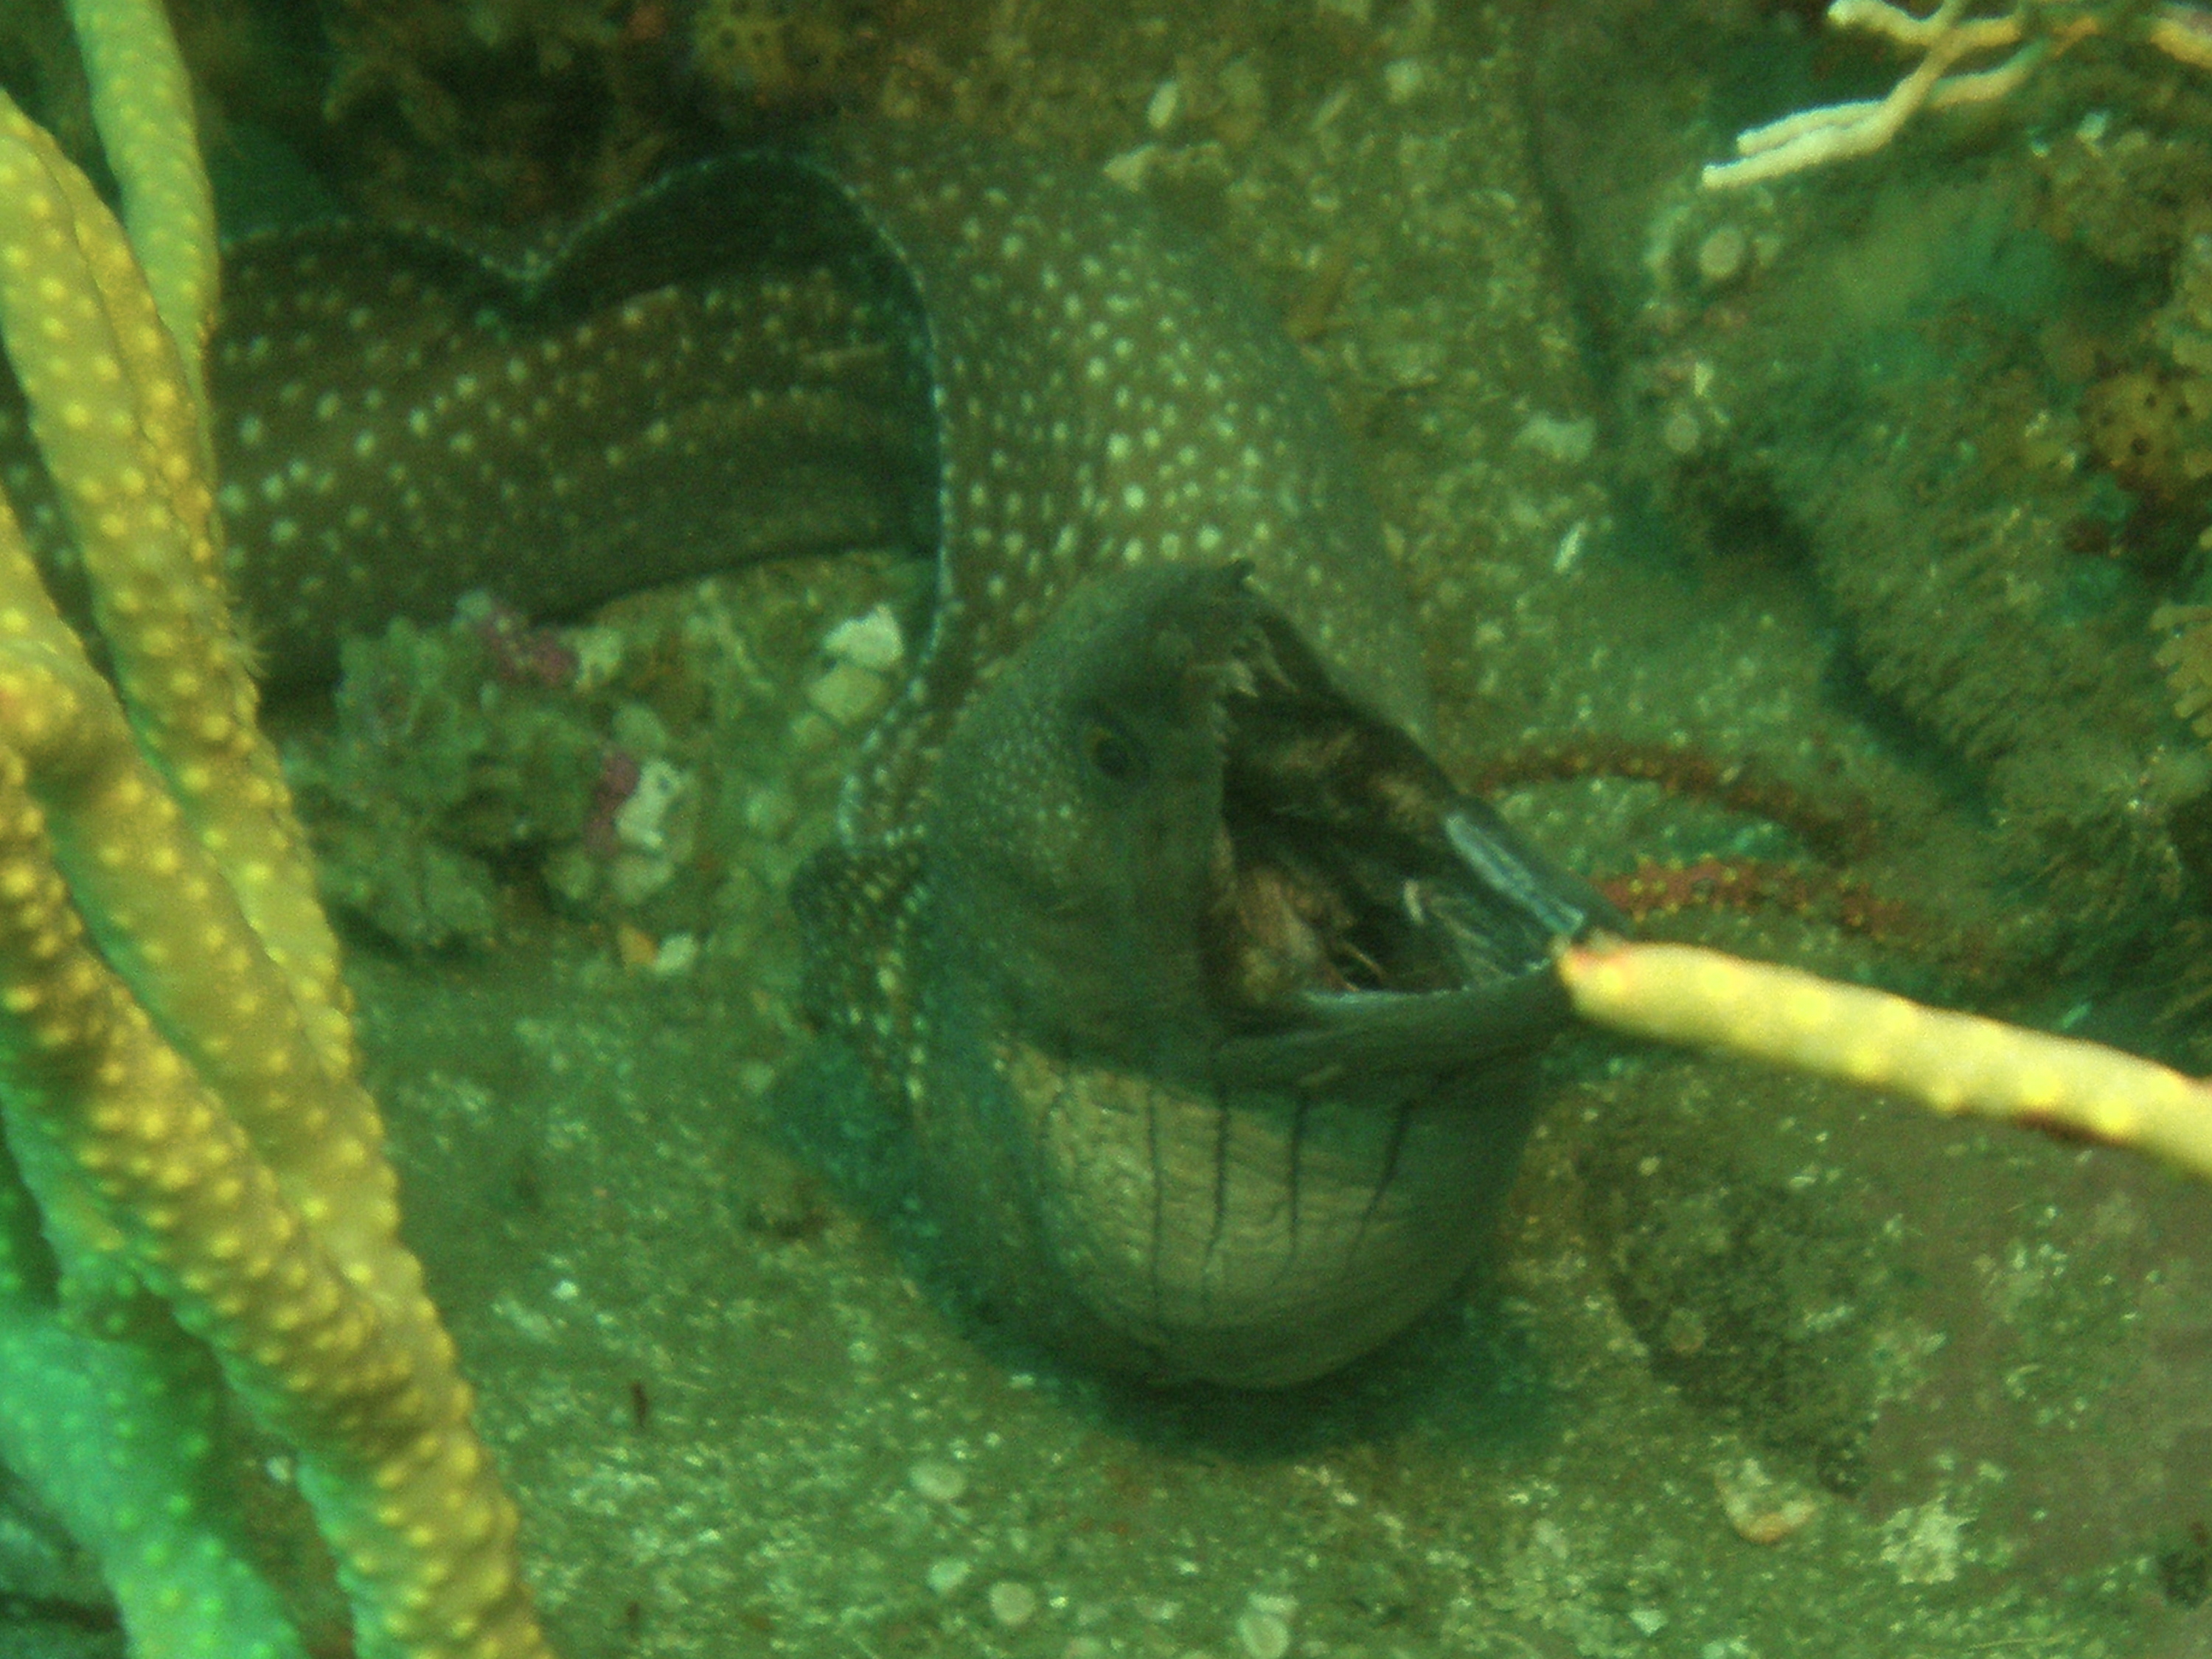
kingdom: Animalia
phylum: Chordata
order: Anguilliformes
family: Muraenidae
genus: Gymnothorax
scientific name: Gymnothorax johnsoni
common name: Whitespotted moray
